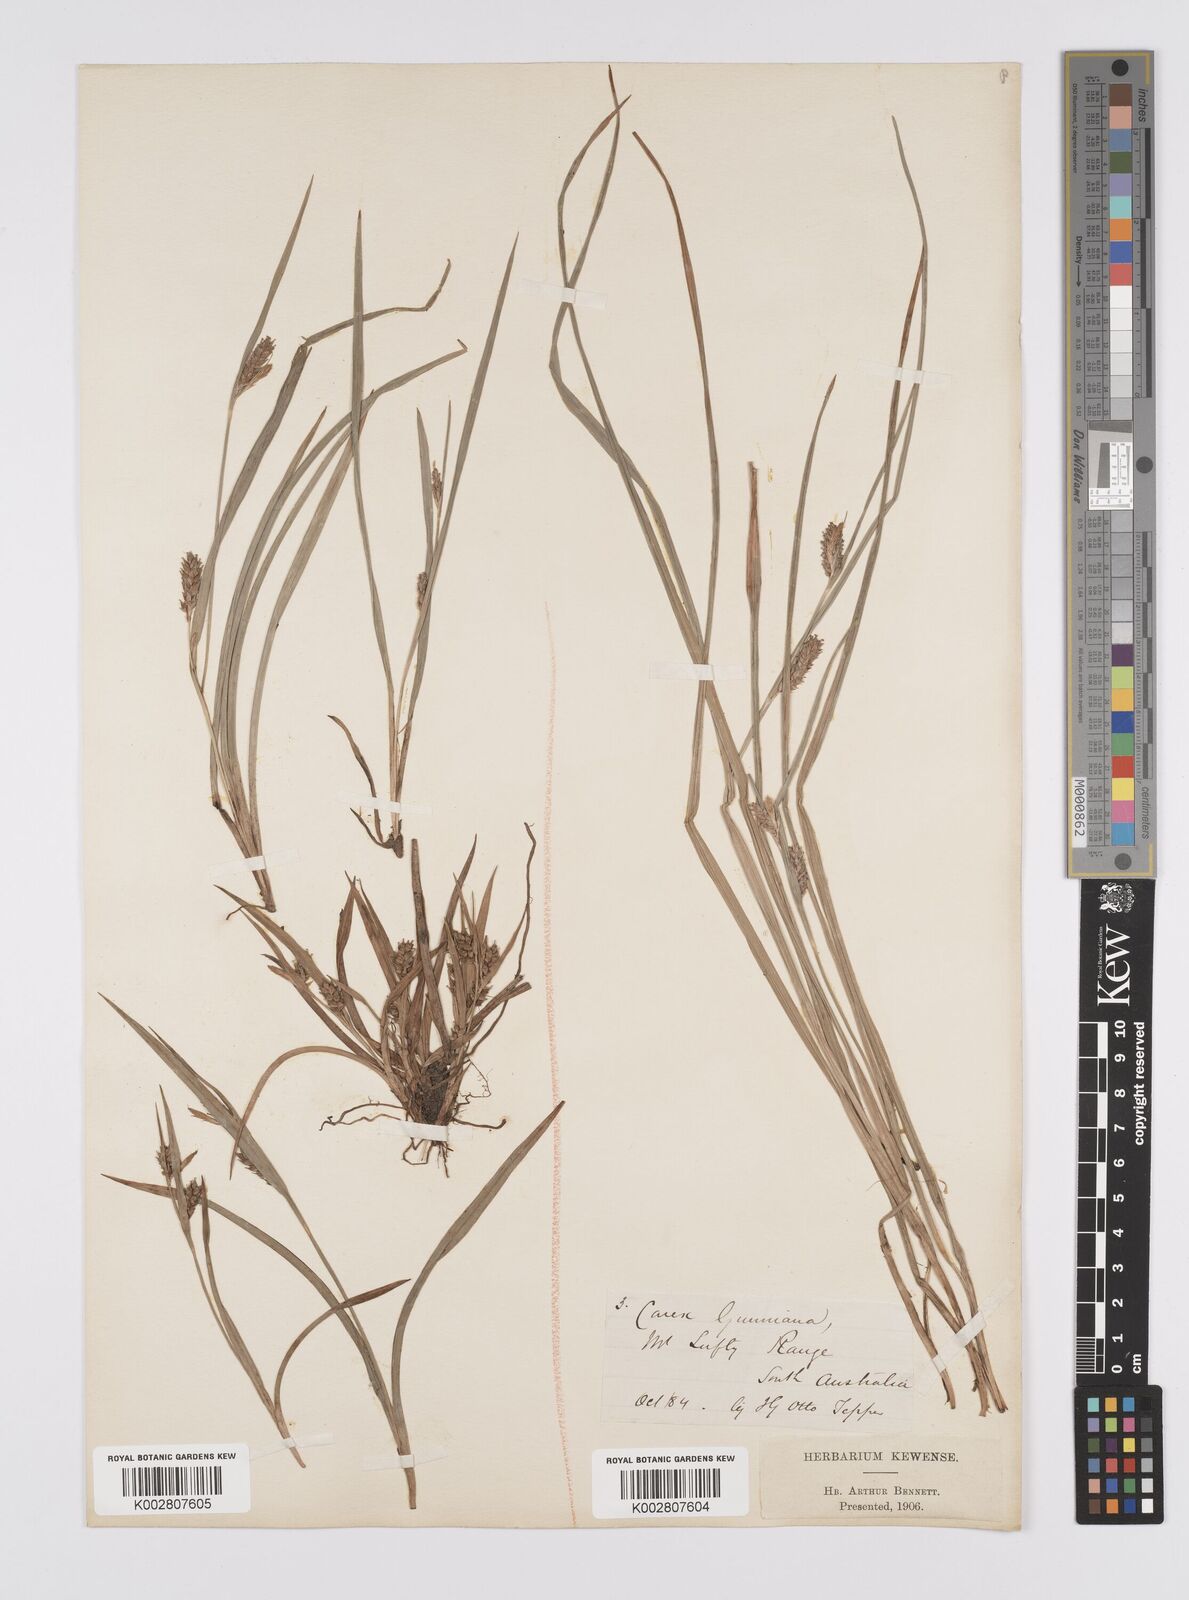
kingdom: Plantae
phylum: Tracheophyta
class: Liliopsida
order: Poales
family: Cyperaceae
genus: Carex
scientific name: Carex gunniana
